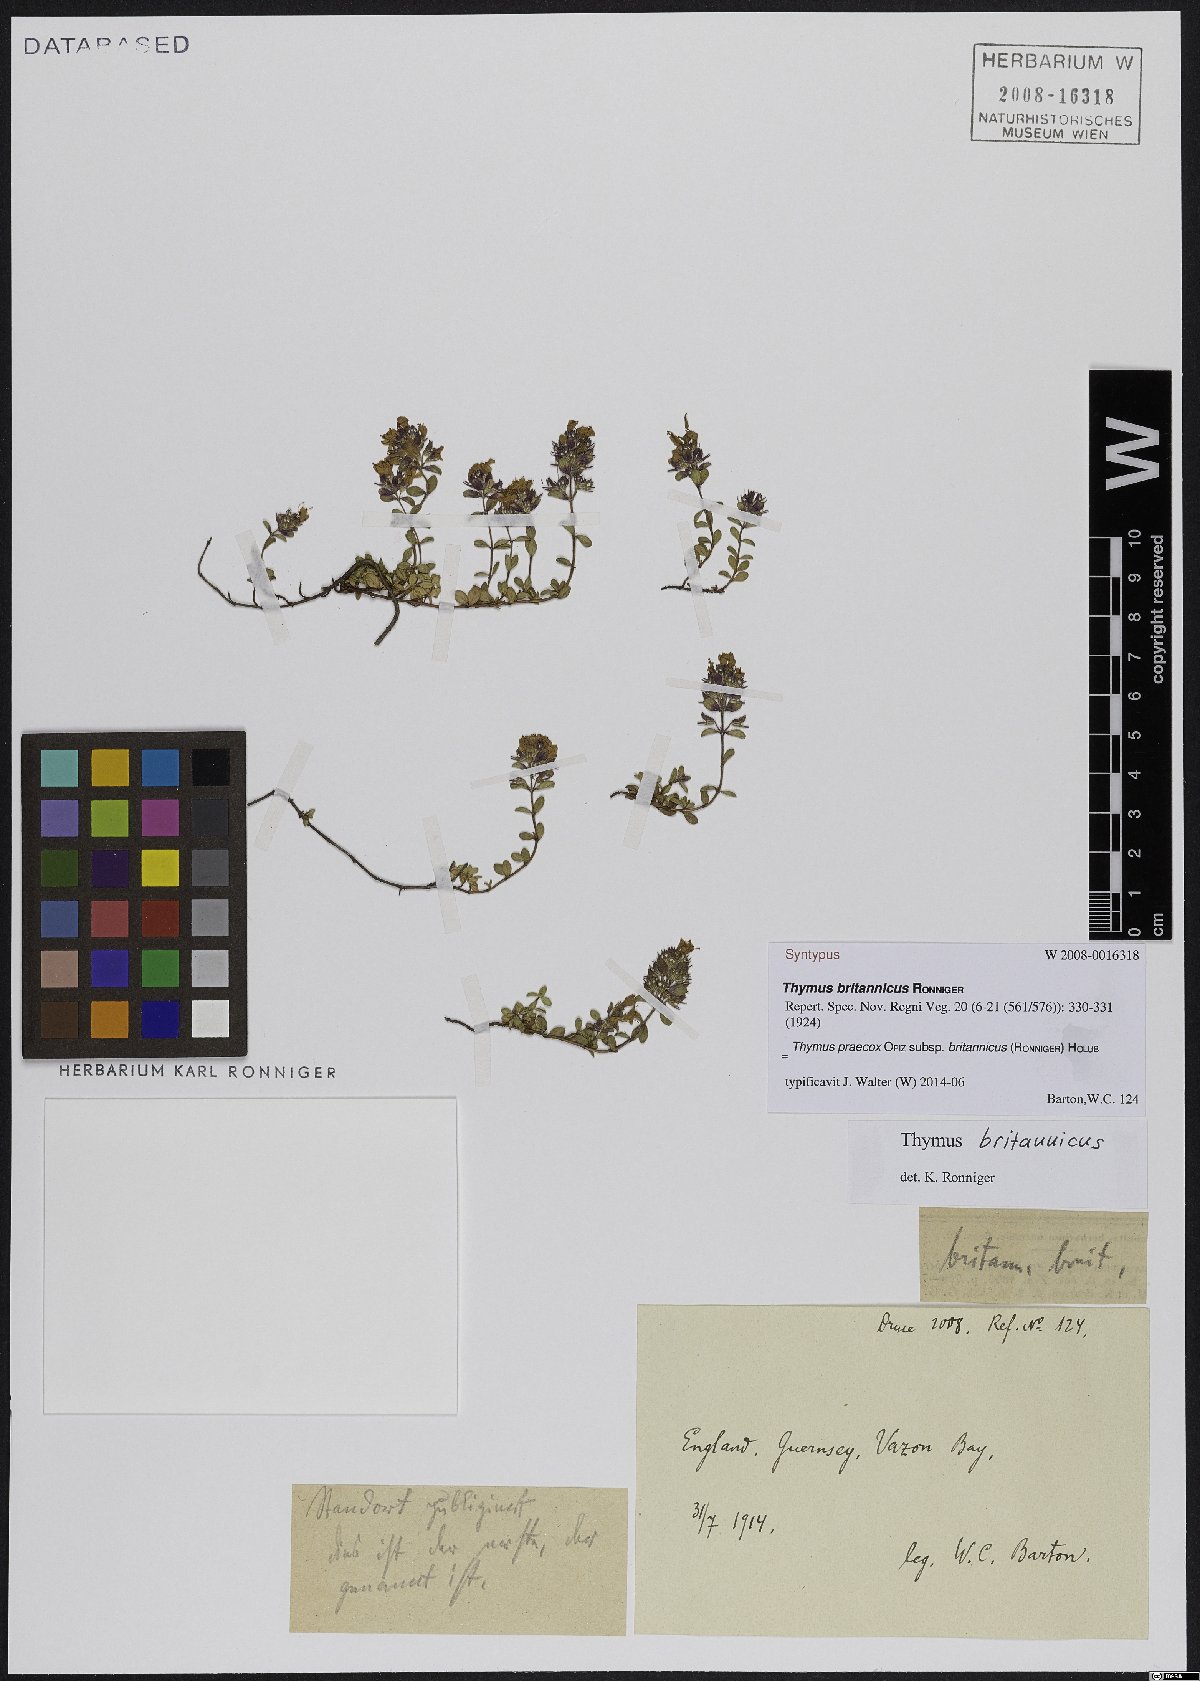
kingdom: Plantae
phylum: Tracheophyta
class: Magnoliopsida
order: Lamiales
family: Lamiaceae
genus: Thymus
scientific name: Thymus praecox
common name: Wild thyme
